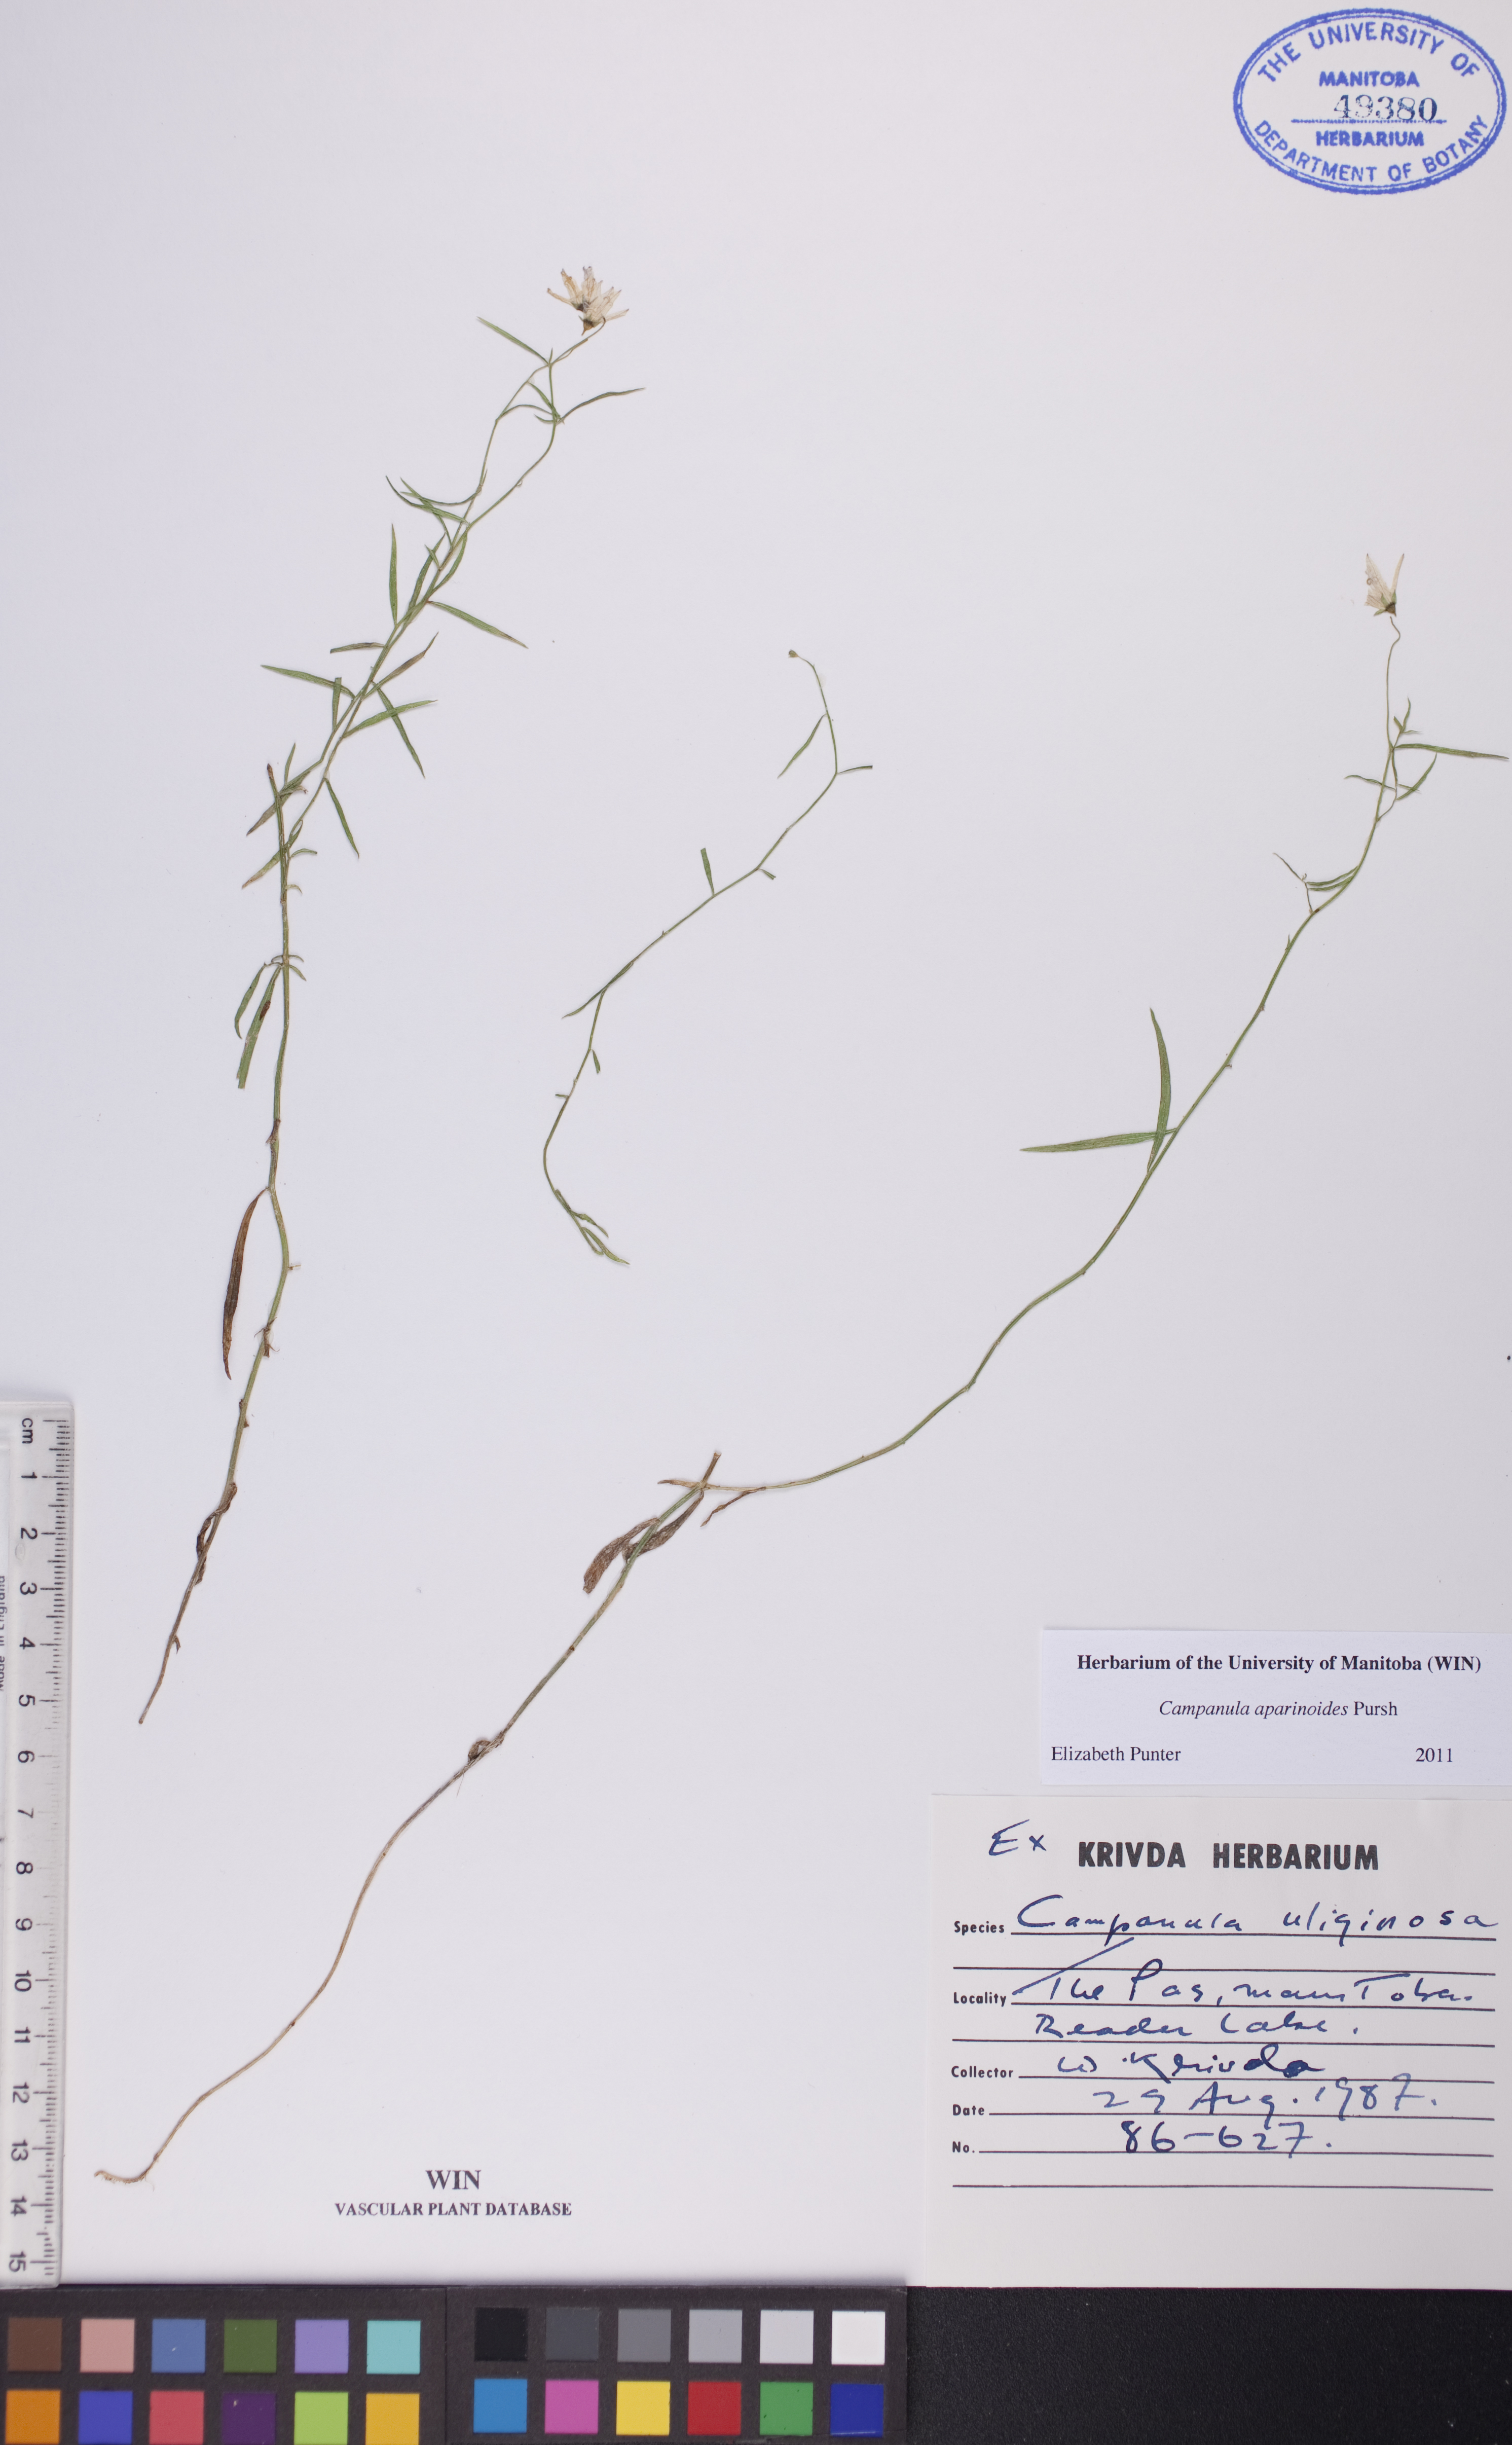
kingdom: Plantae
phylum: Tracheophyta
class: Magnoliopsida
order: Asterales
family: Campanulaceae
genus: Palustricodon
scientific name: Palustricodon aparinoides
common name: Bedstraw bellflower
